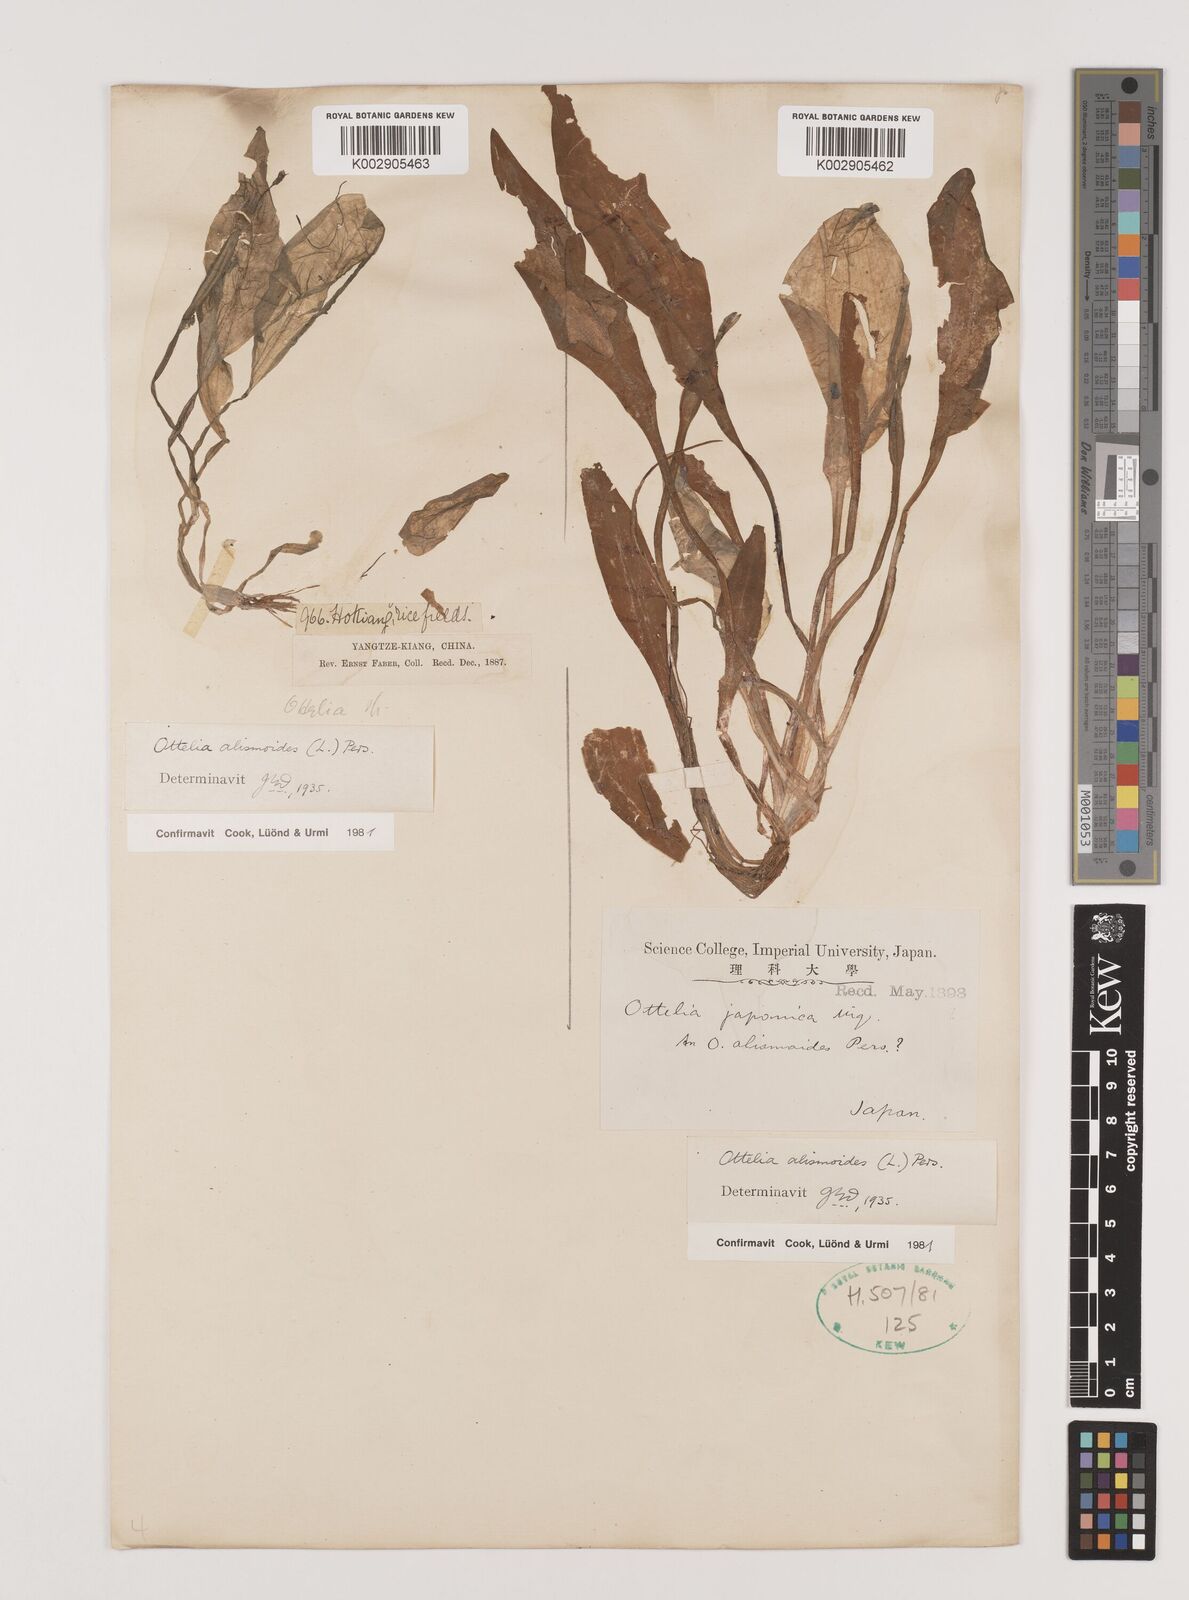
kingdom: Plantae
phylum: Tracheophyta
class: Liliopsida
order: Alismatales
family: Hydrocharitaceae
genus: Ottelia
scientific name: Ottelia alismoides
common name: Duck-lettuce
